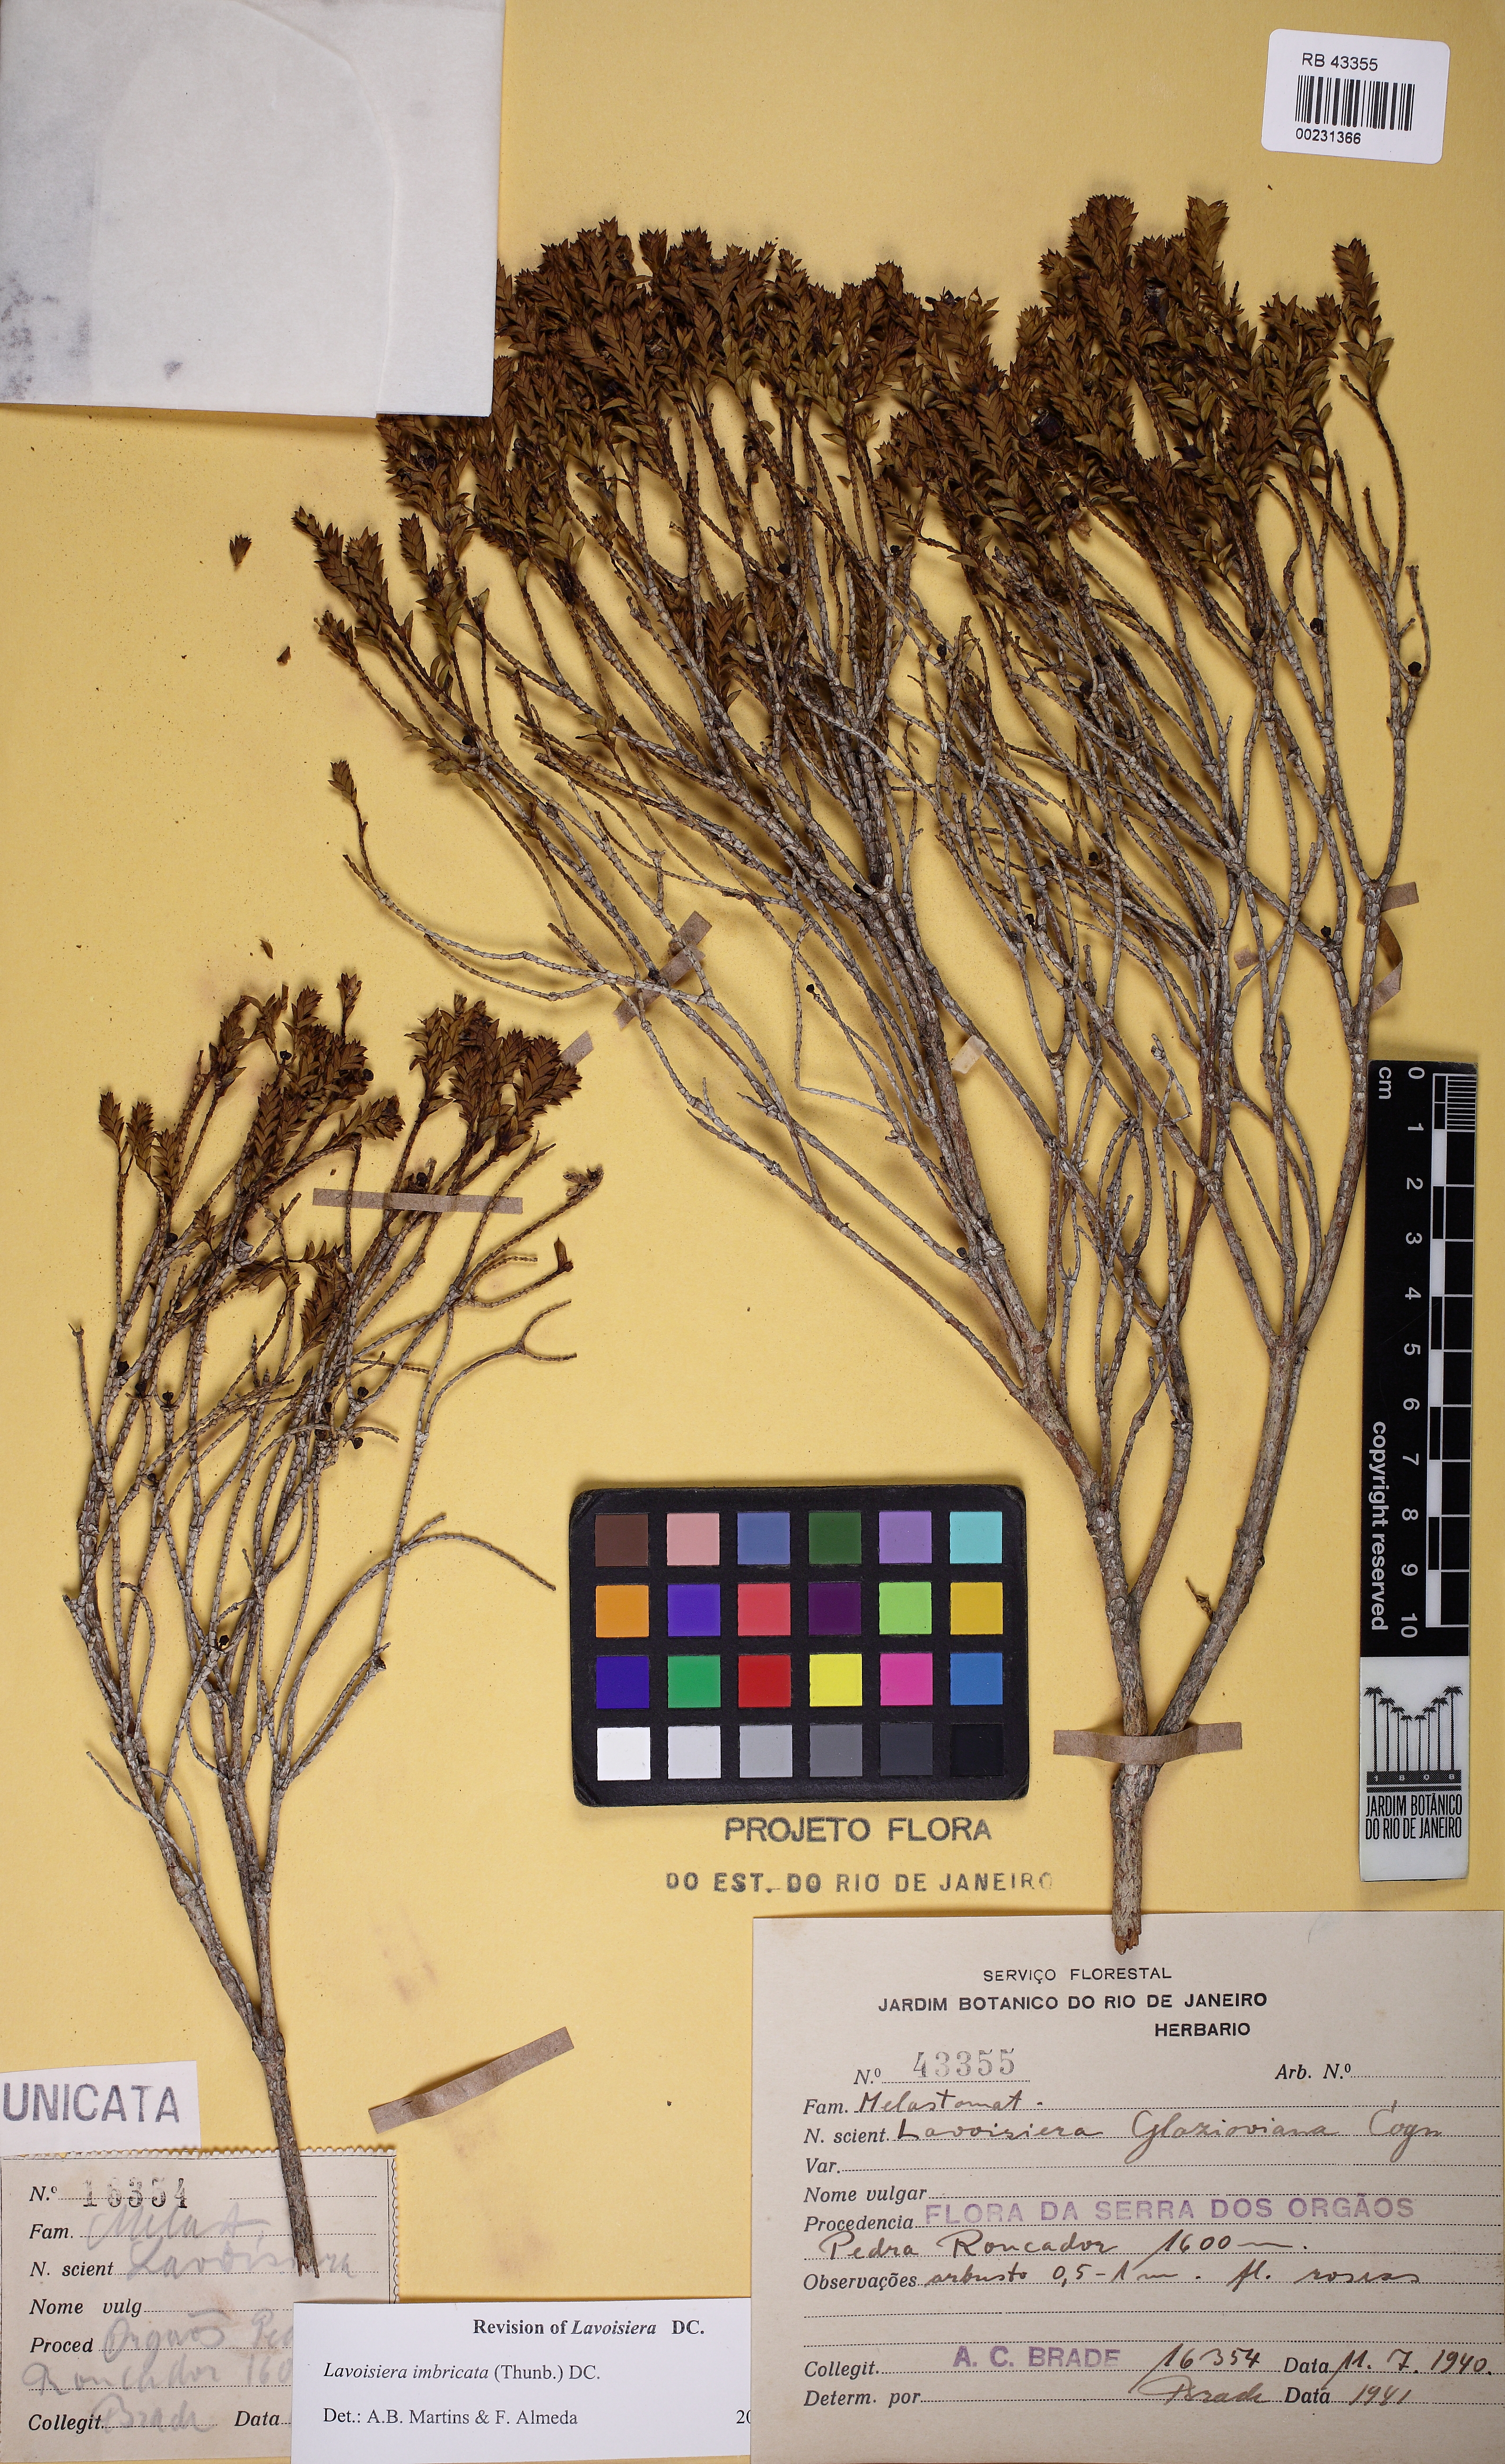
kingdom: Plantae
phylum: Tracheophyta
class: Magnoliopsida
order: Myrtales
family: Melastomataceae
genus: Microlicia
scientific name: Microlicia cataphracta
